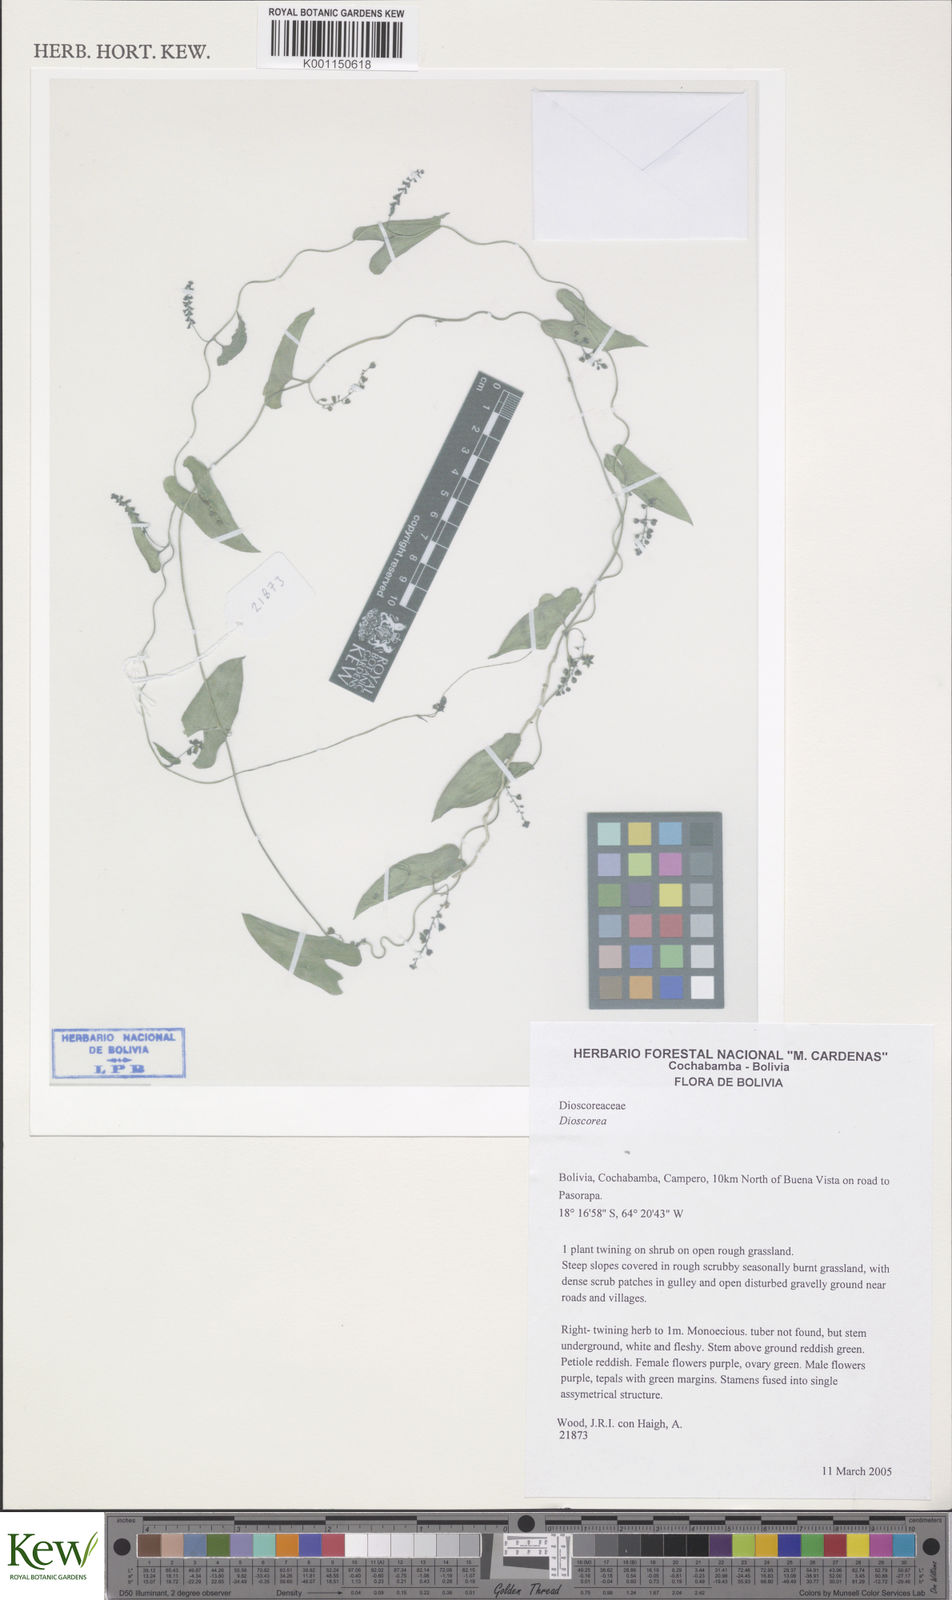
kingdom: Plantae
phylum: Tracheophyta
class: Liliopsida
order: Dioscoreales
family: Dioscoreaceae
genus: Dioscorea
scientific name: Dioscorea
